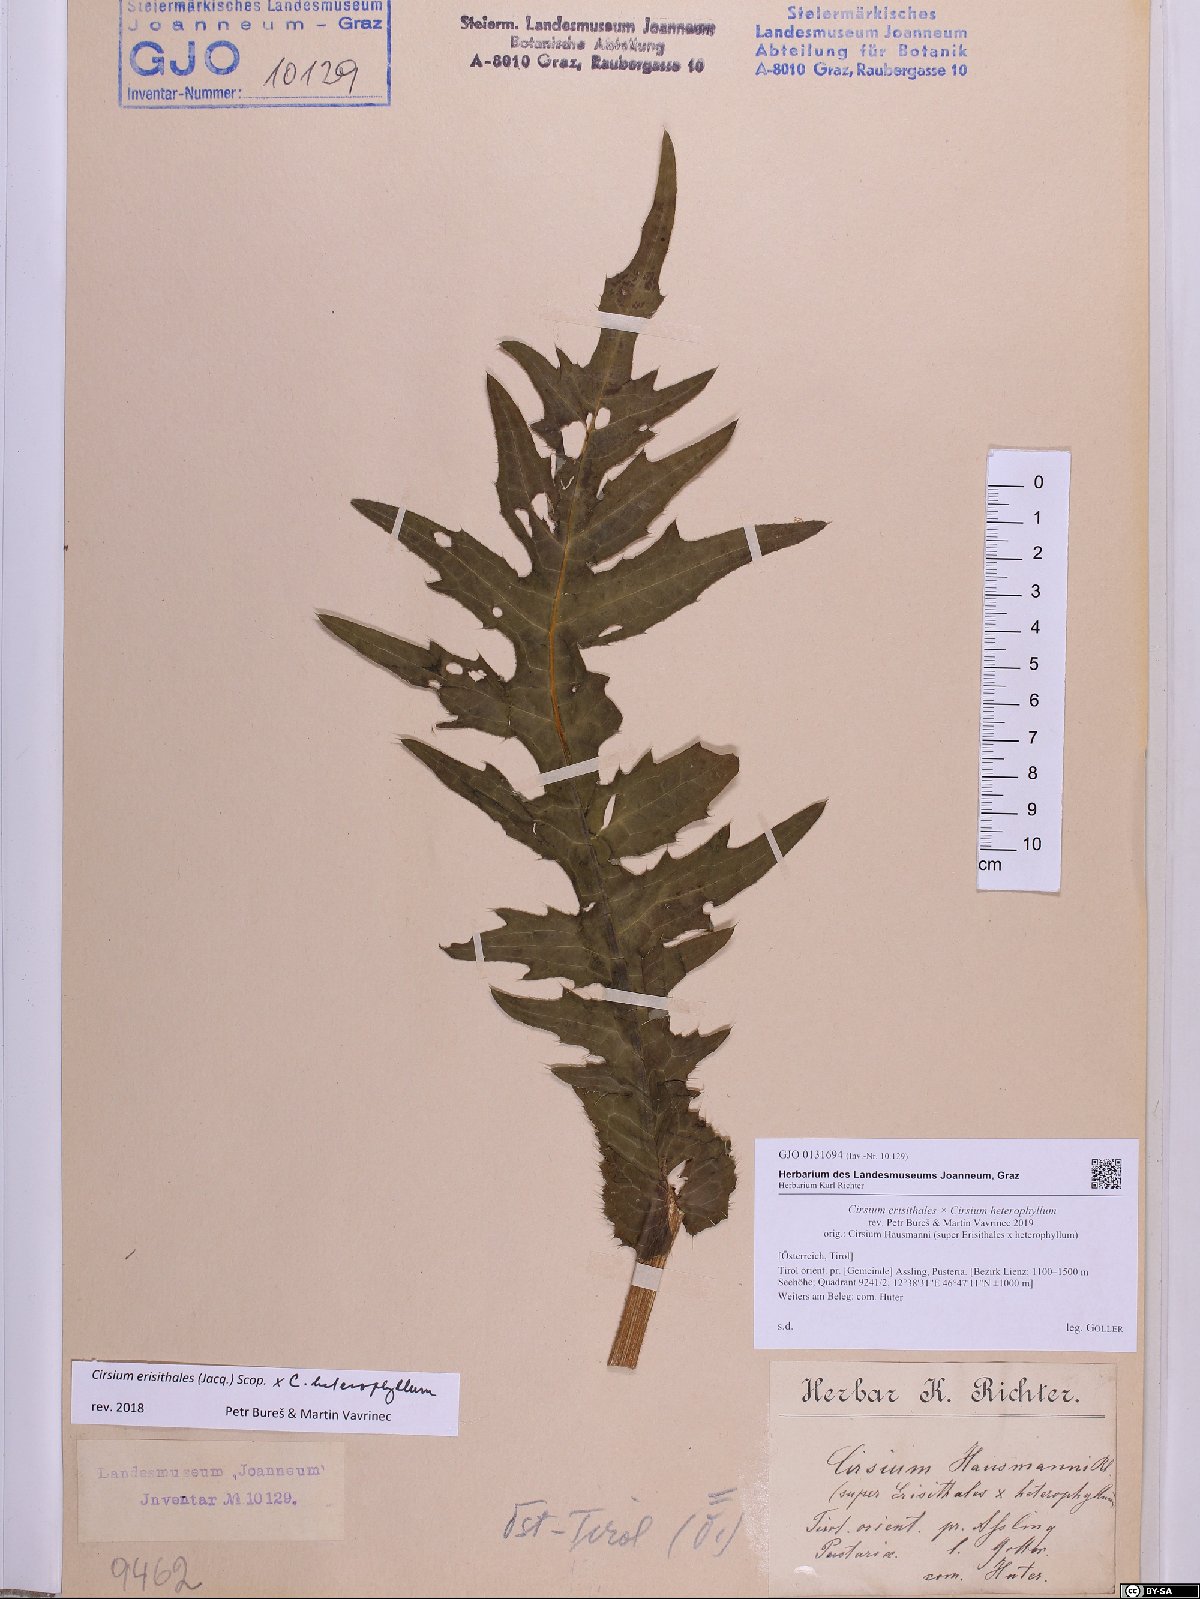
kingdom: Plantae
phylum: Tracheophyta
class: Magnoliopsida
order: Asterales
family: Asteraceae
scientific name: Asteraceae
